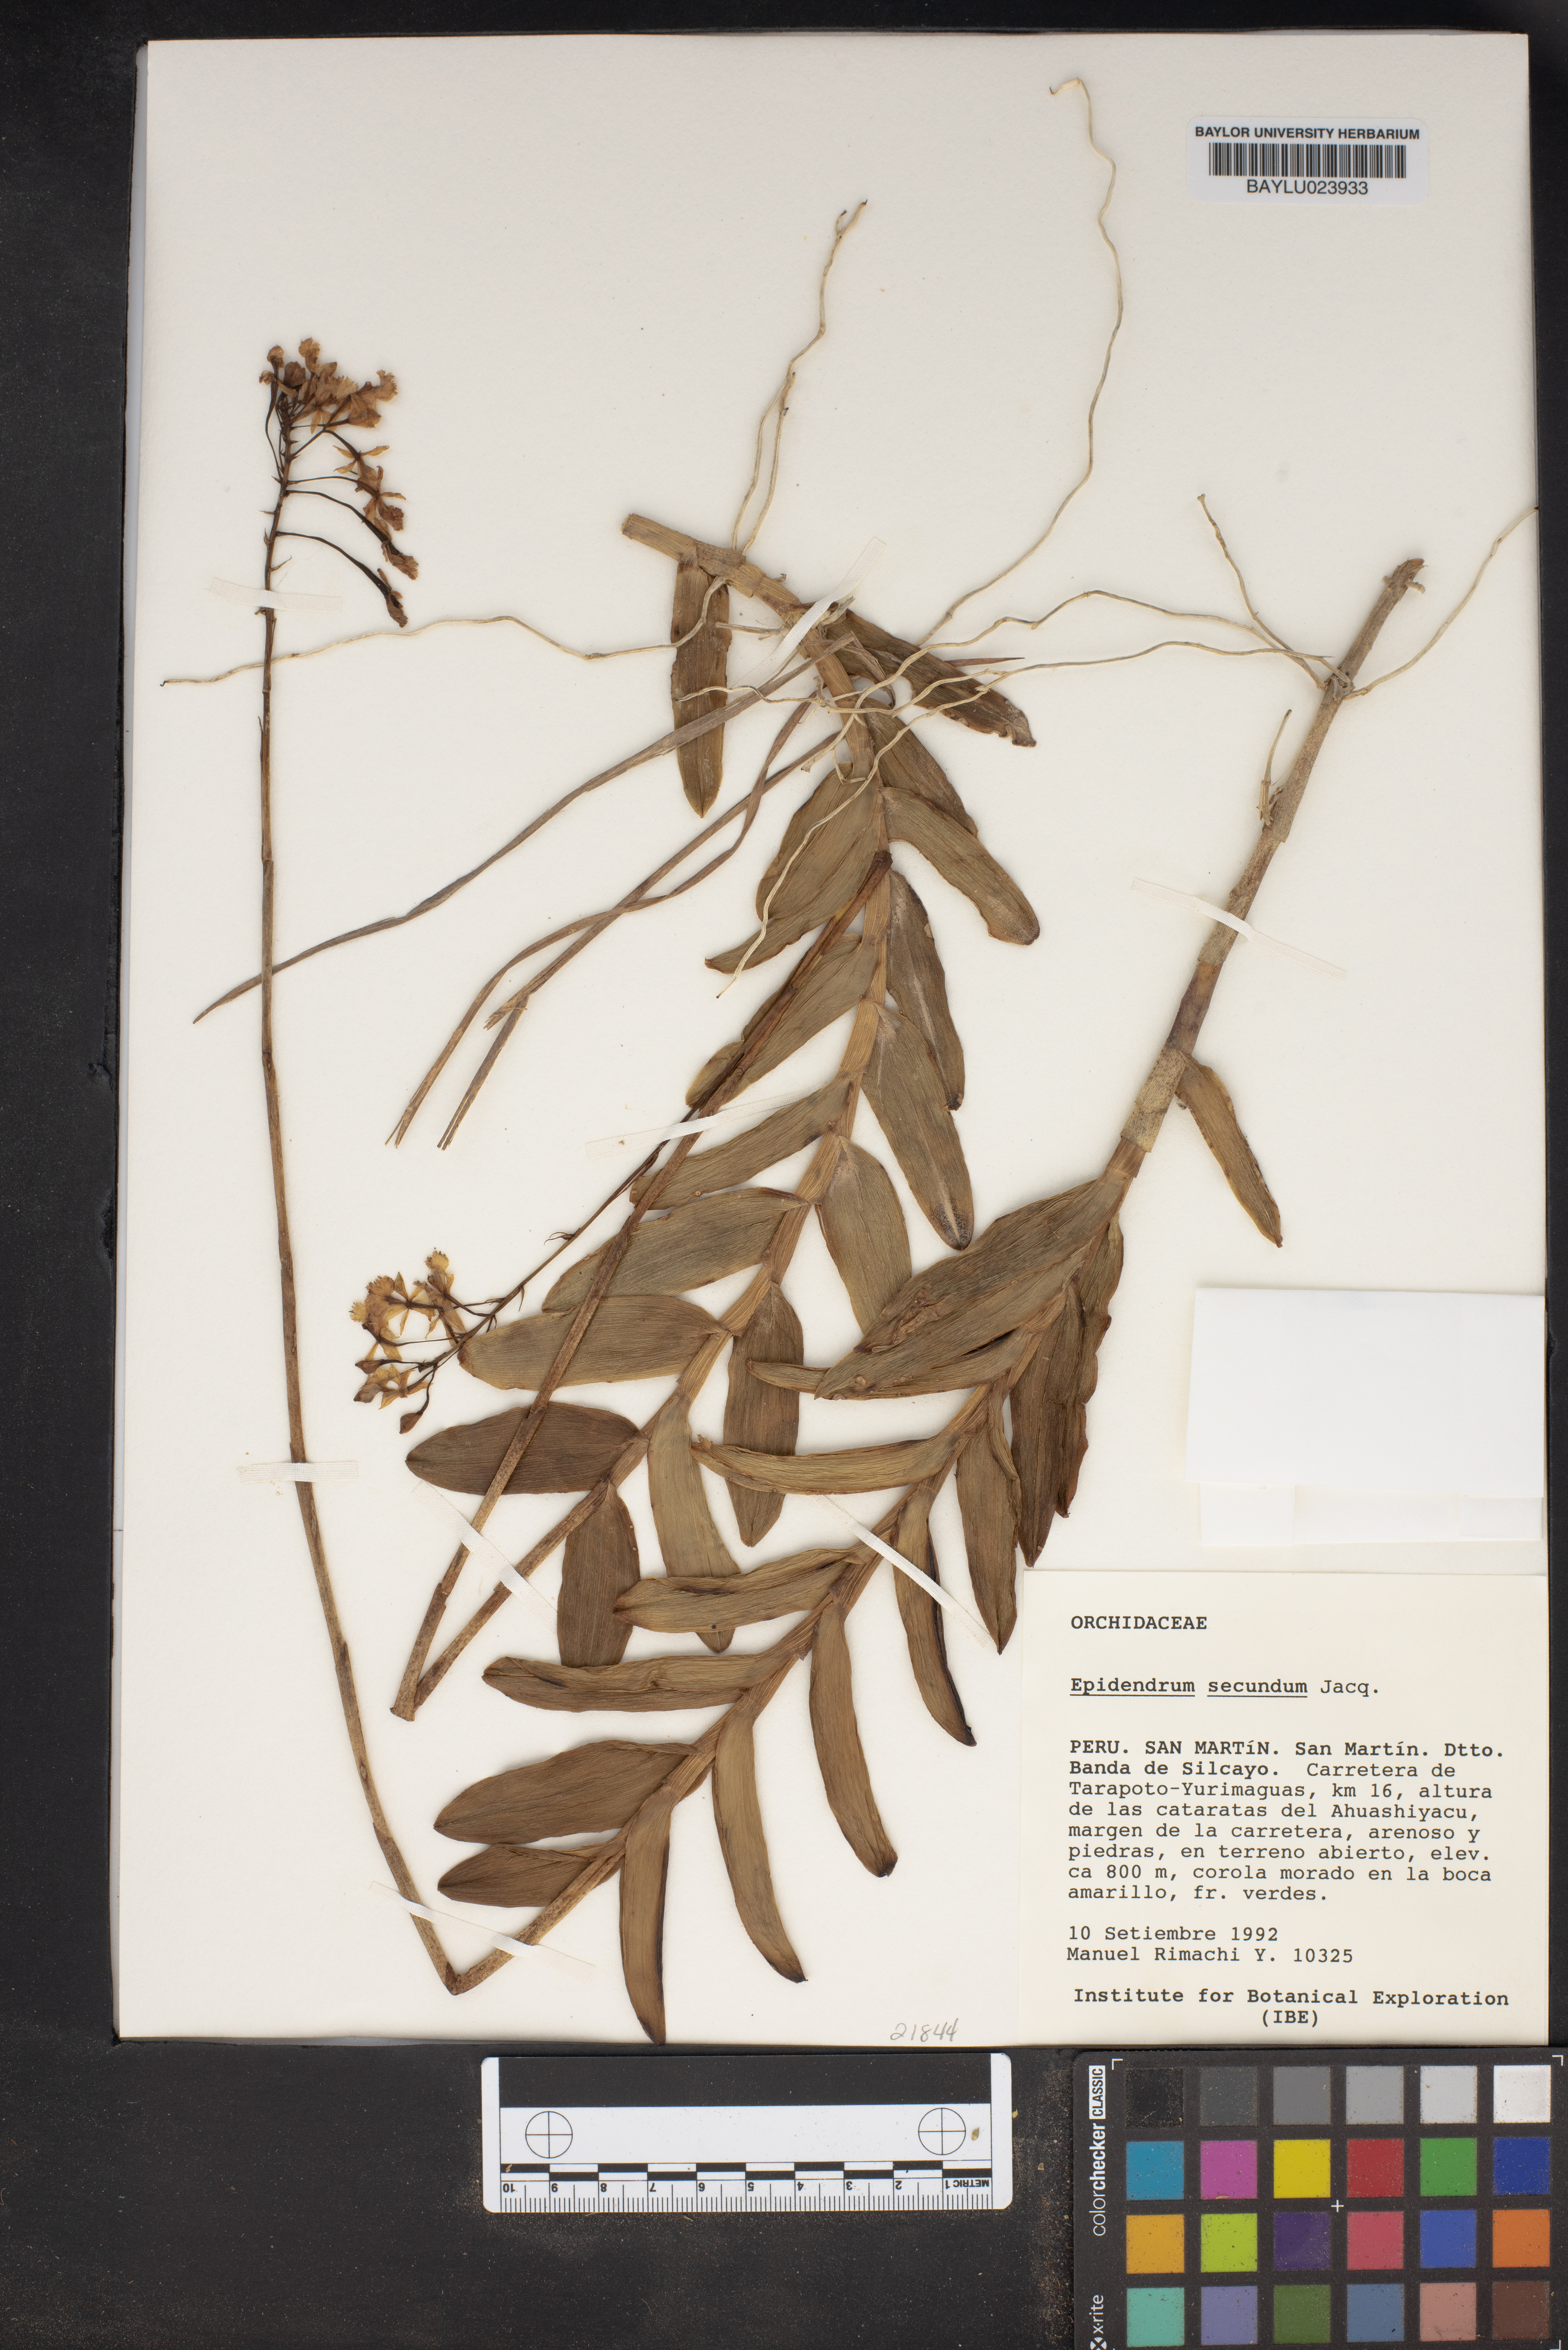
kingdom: Plantae
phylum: Tracheophyta
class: Liliopsida
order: Asparagales
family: Orchidaceae
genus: Epidendrum
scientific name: Epidendrum secundum
